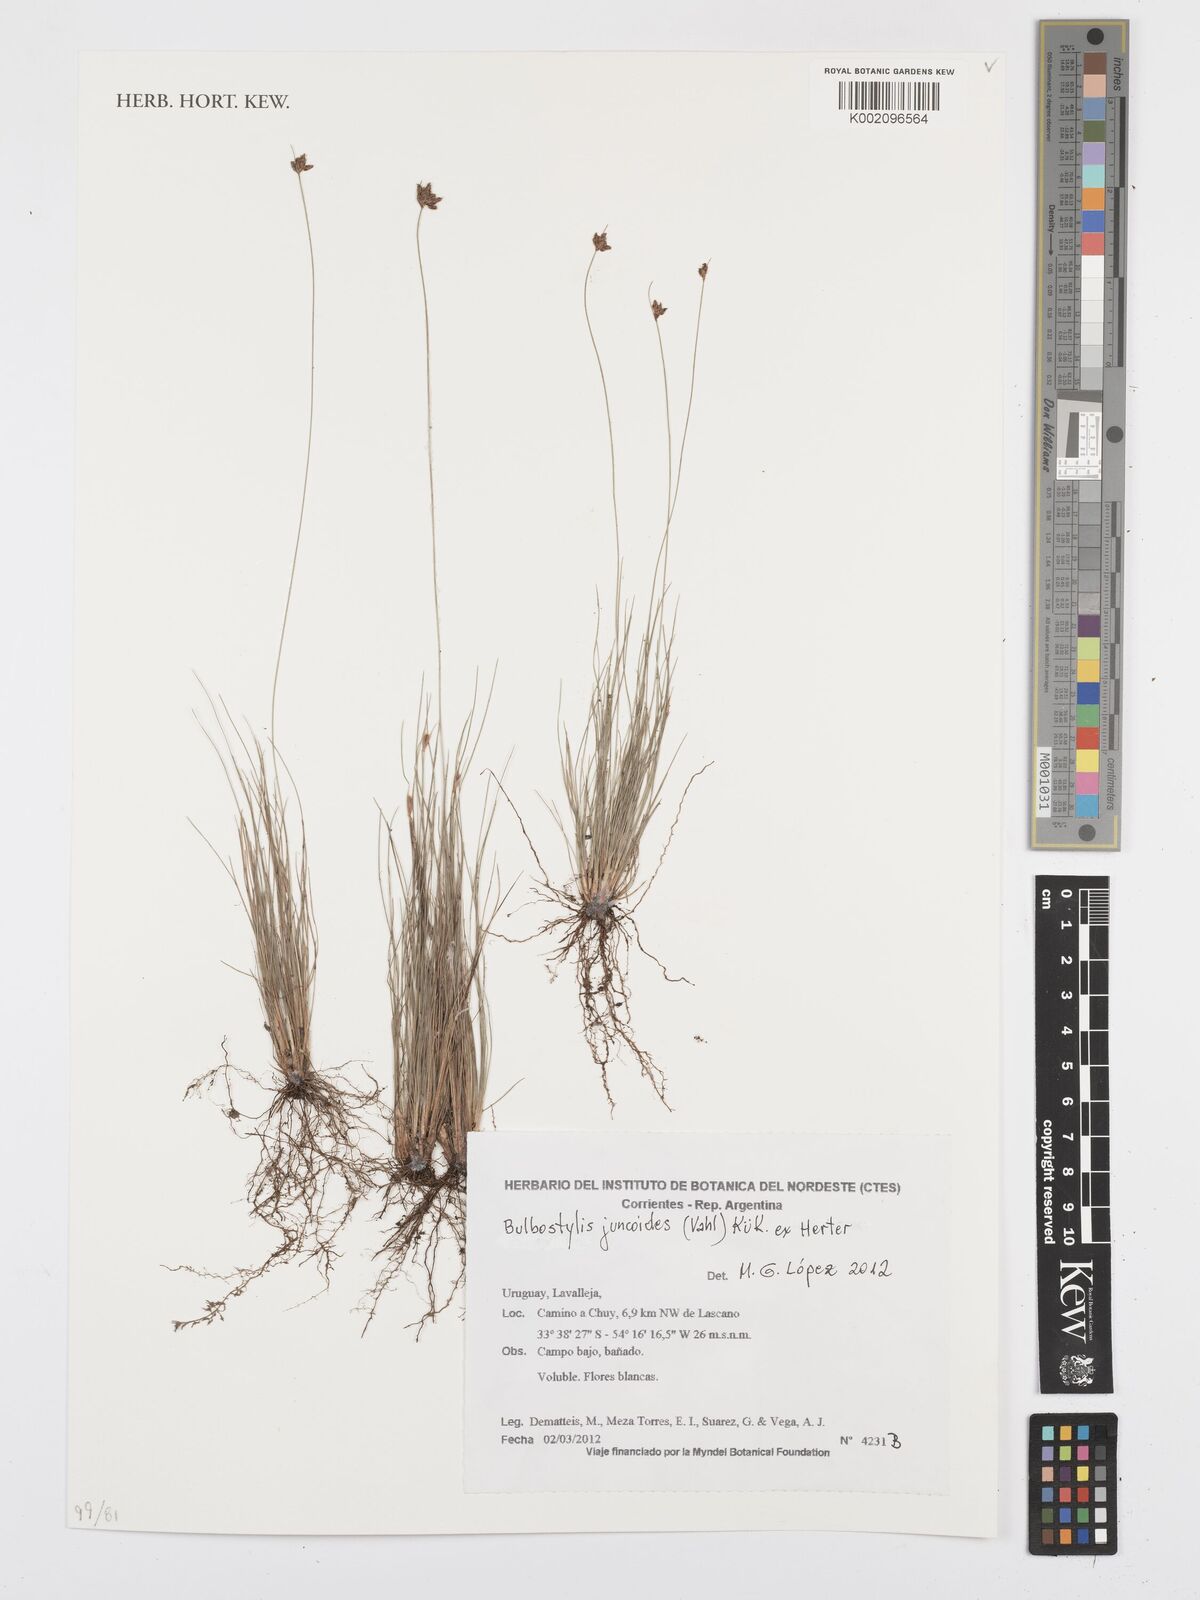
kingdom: Plantae
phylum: Tracheophyta
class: Liliopsida
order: Poales
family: Cyperaceae
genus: Bulbostylis
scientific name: Bulbostylis juncoides
